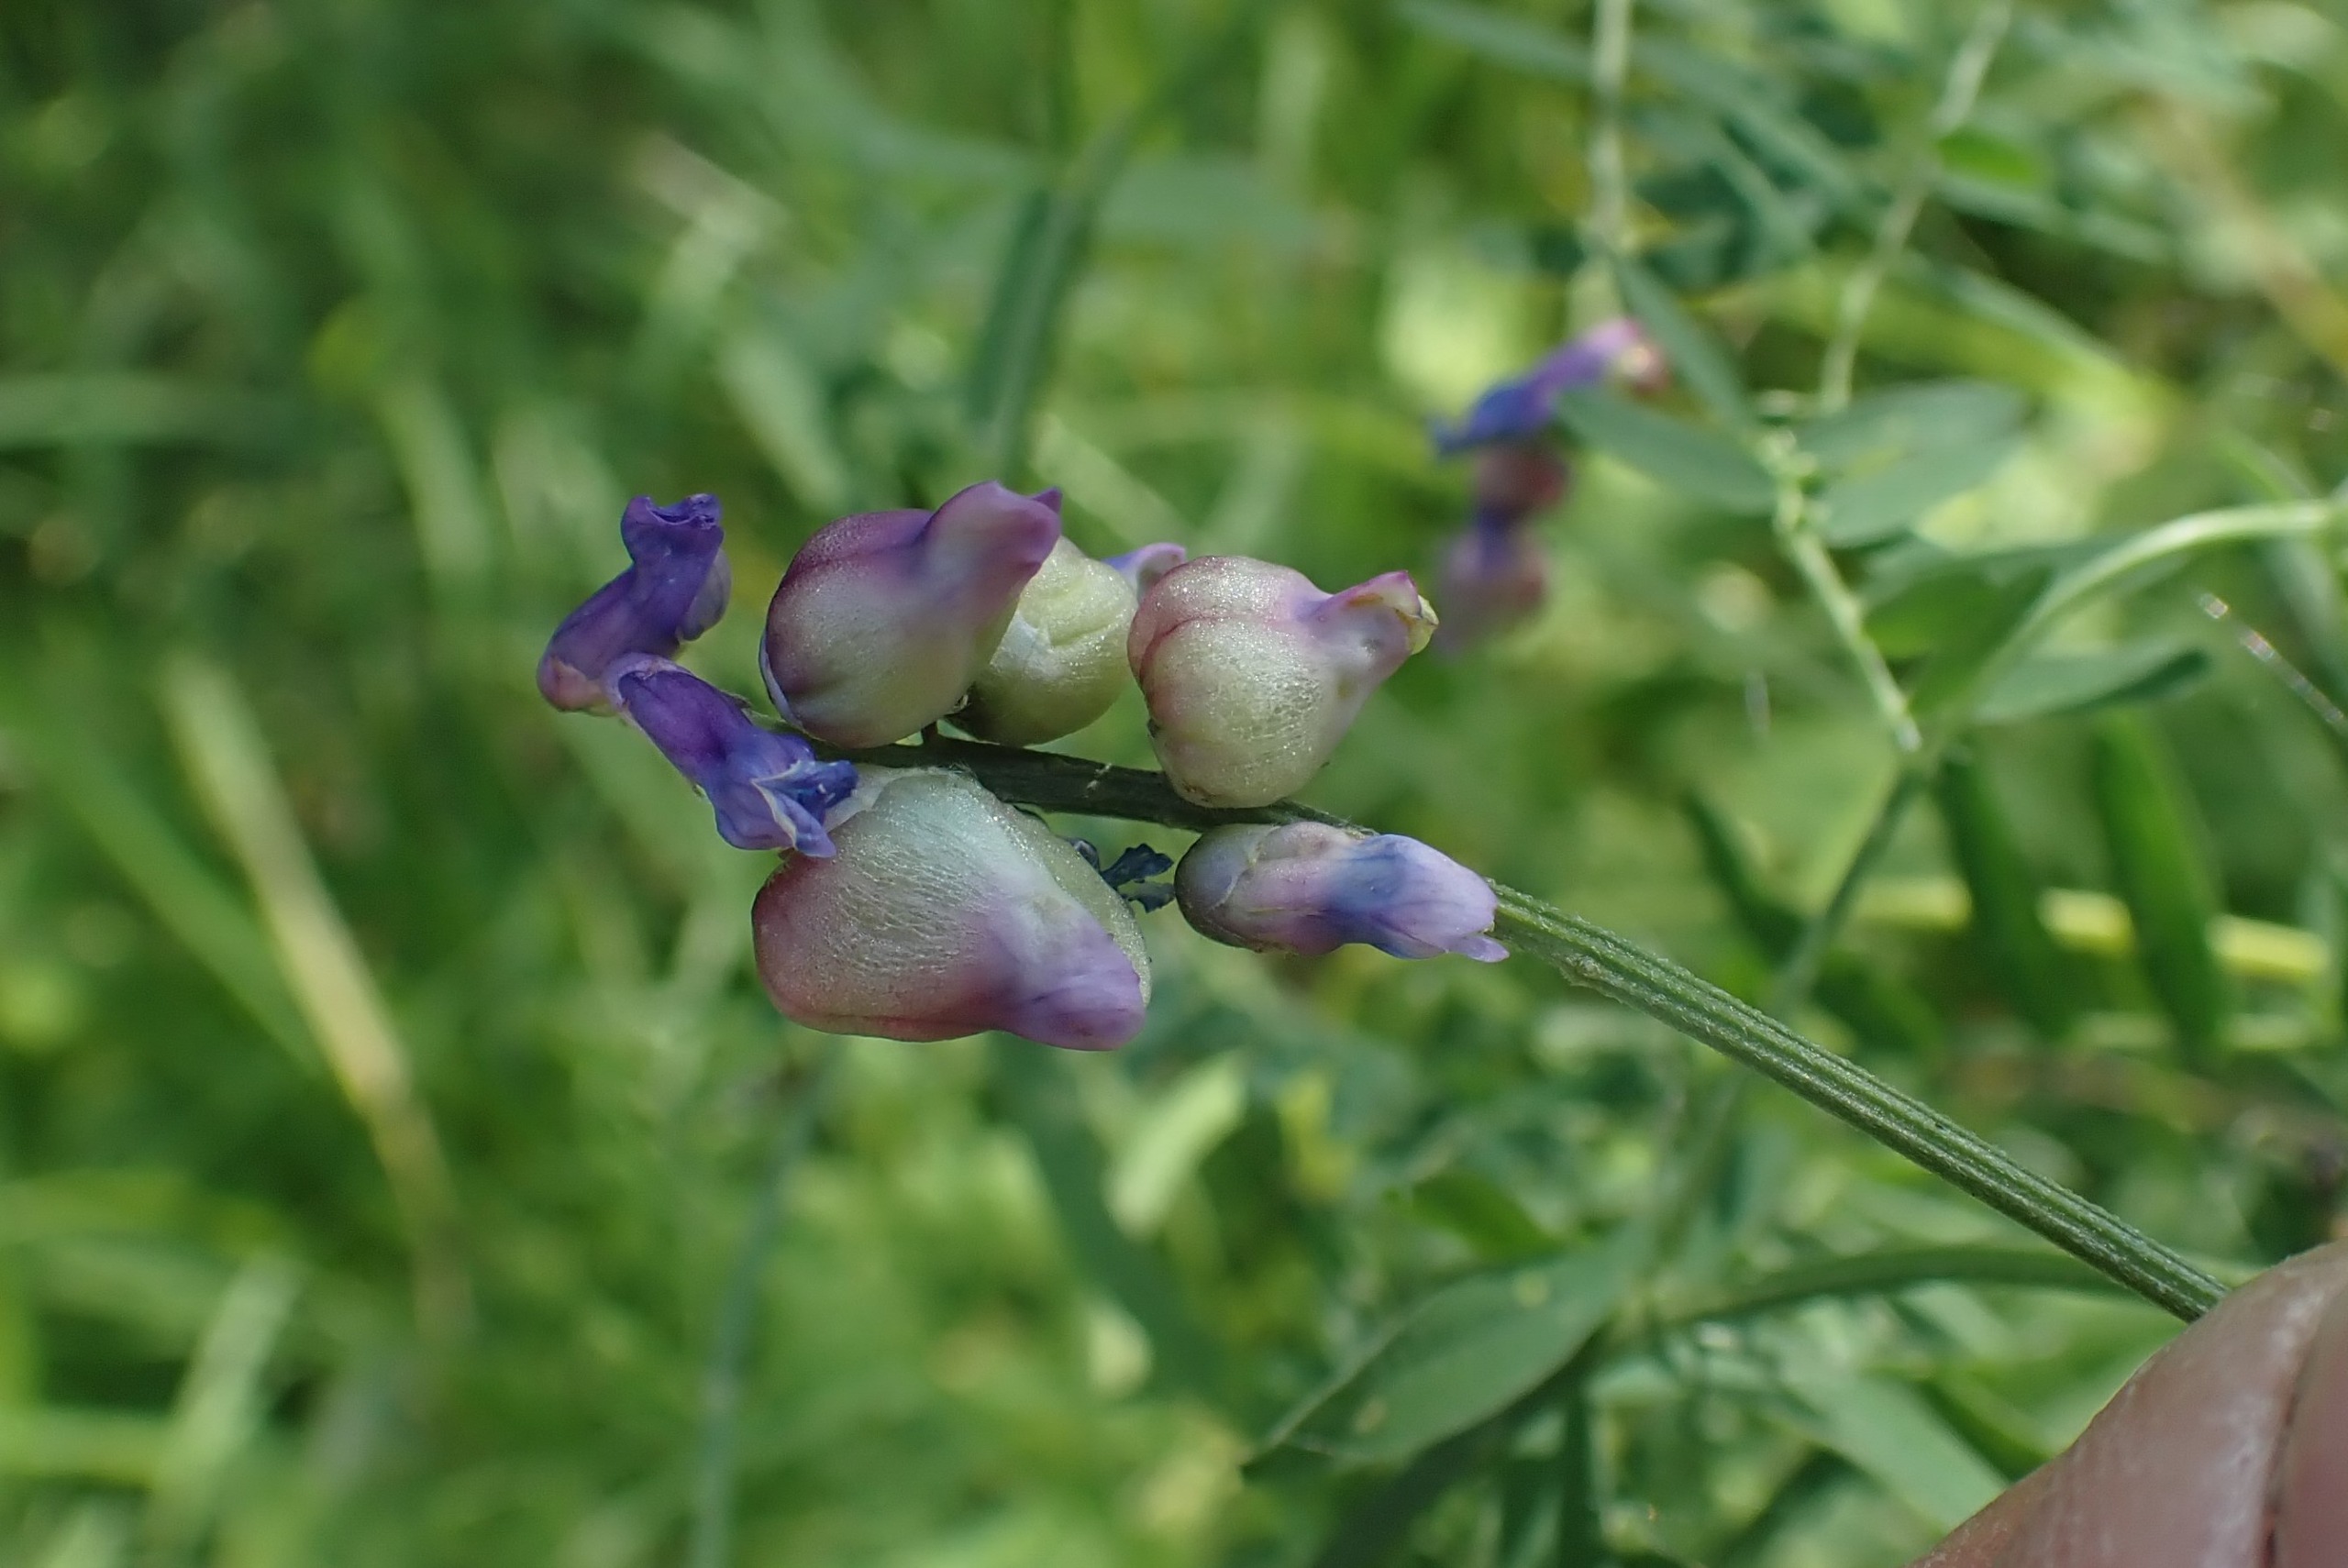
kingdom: Animalia
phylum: Arthropoda
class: Insecta
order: Diptera
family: Cecidomyiidae
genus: Contarinia
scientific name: Contarinia craccae
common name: Vikkeblomstgalmyg
